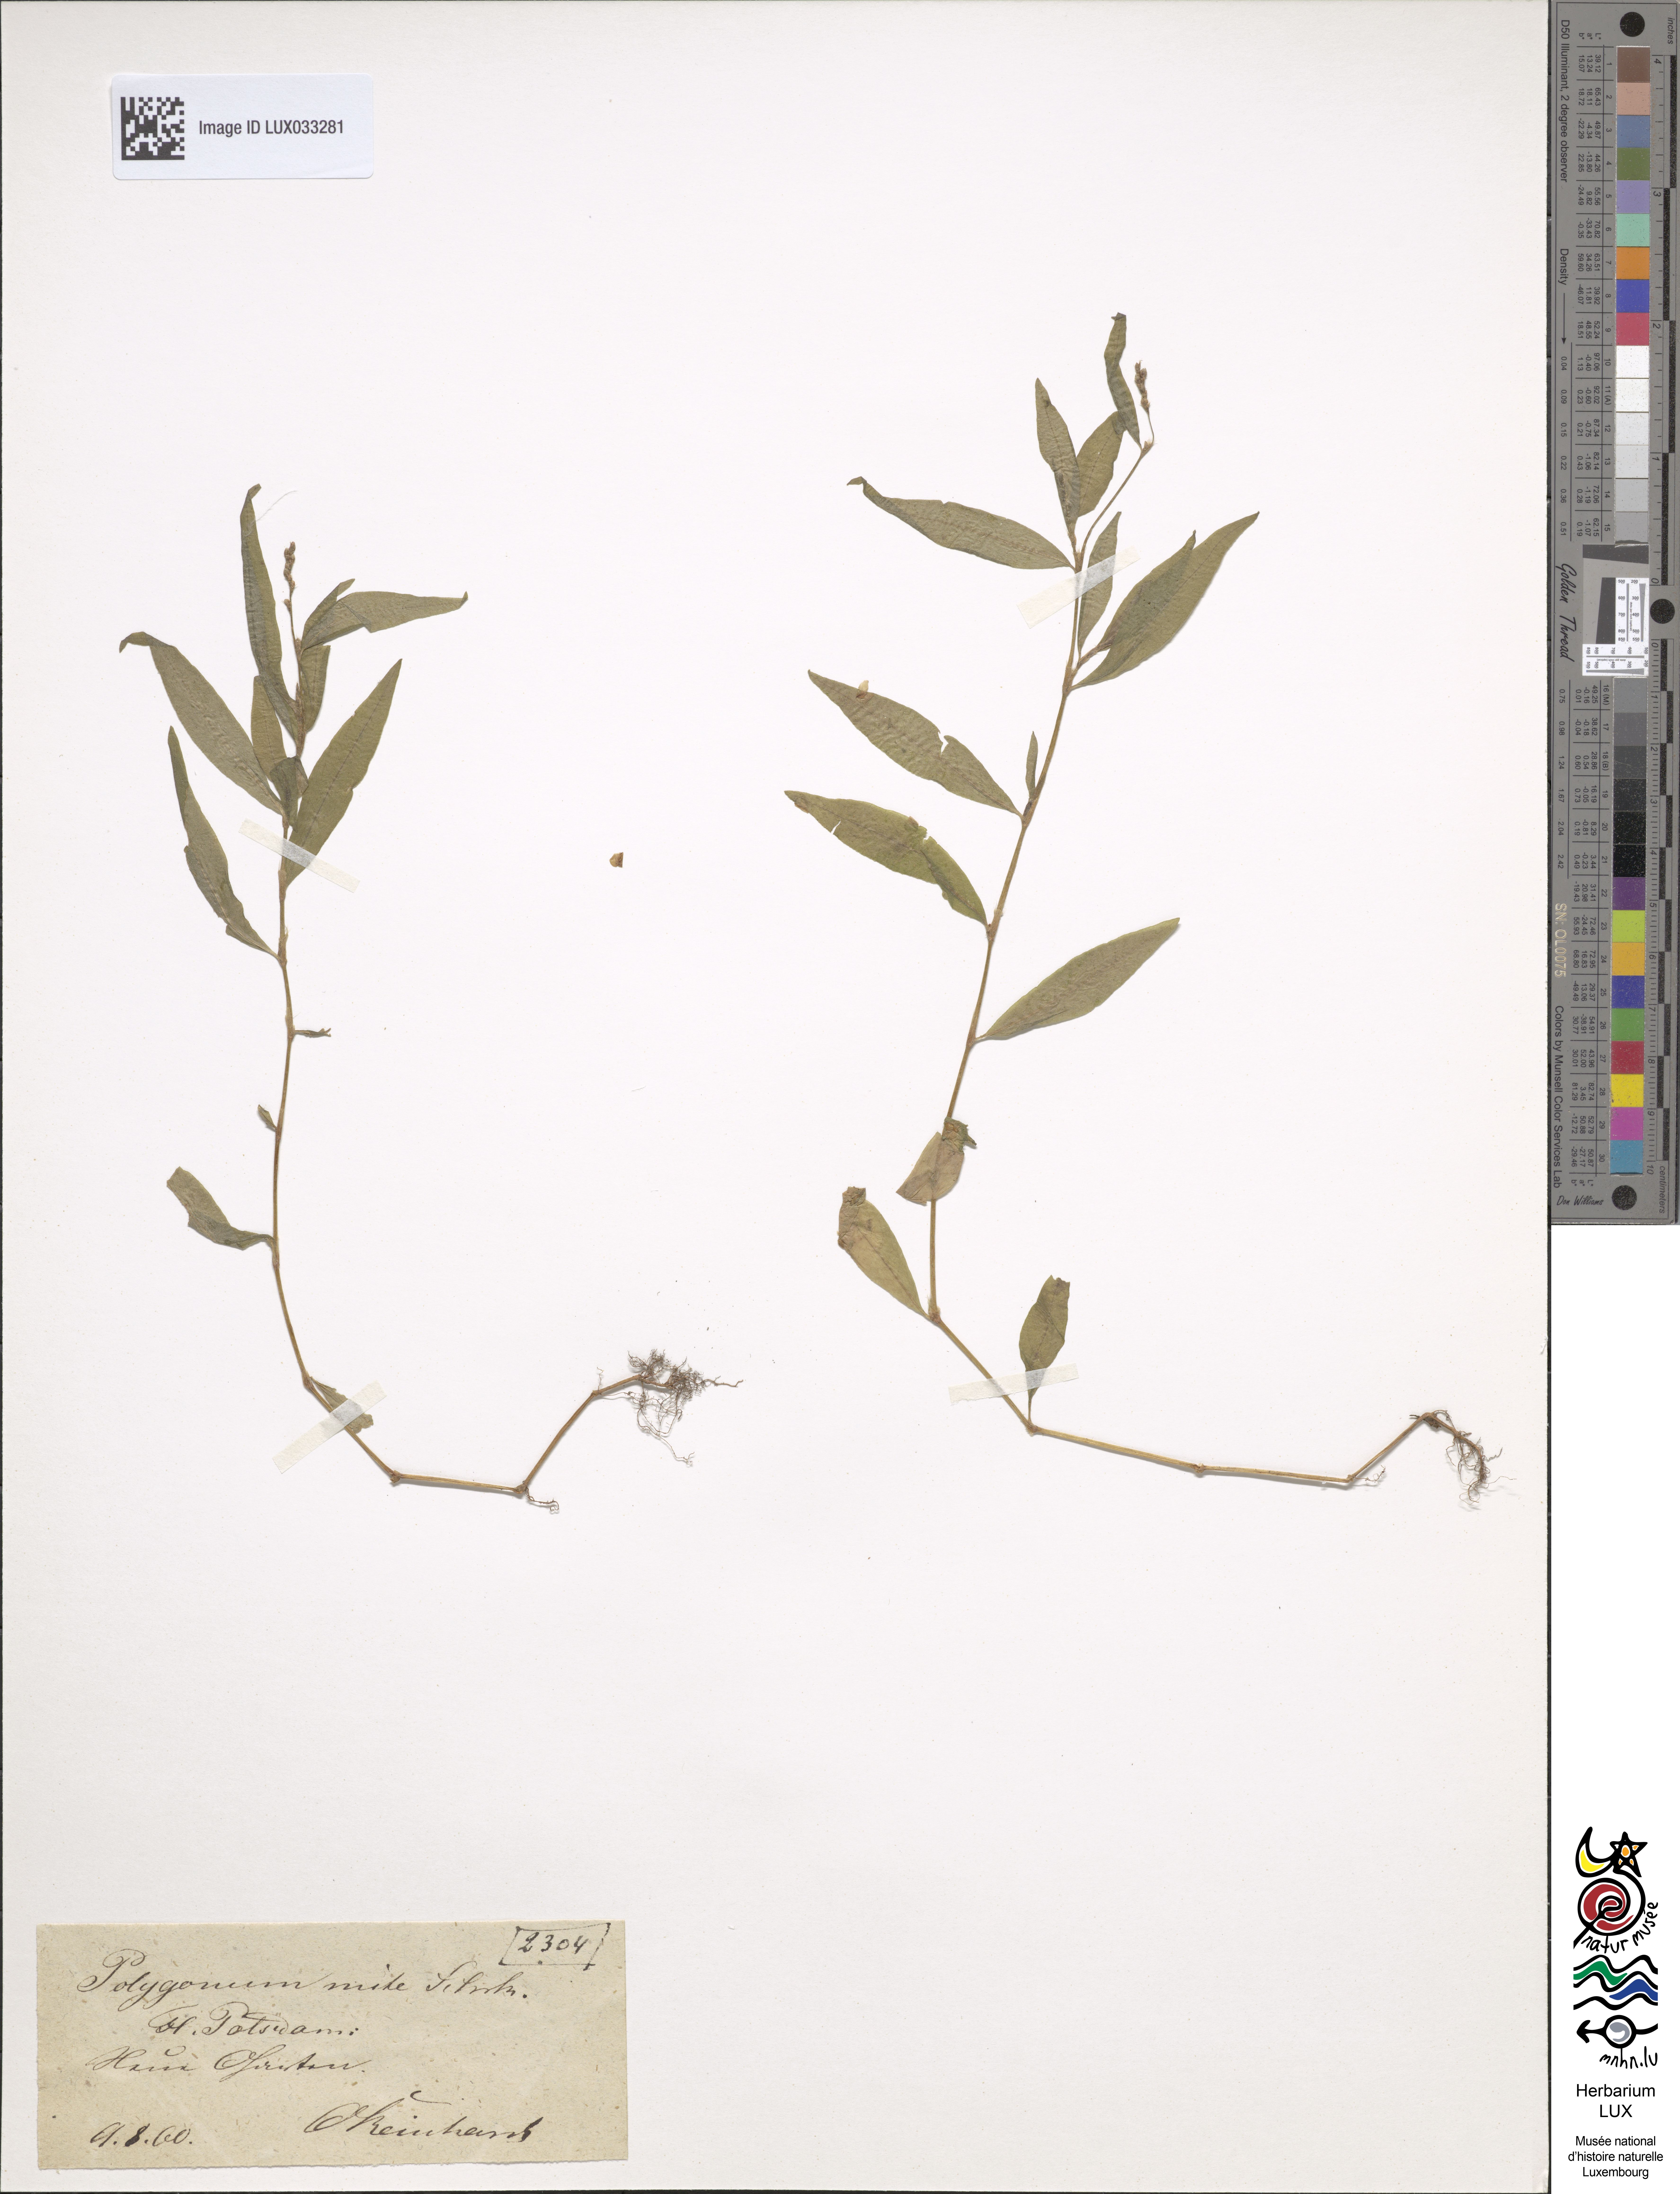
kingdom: Plantae
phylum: Tracheophyta
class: Magnoliopsida
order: Caryophyllales
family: Polygonaceae
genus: Persicaria
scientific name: Persicaria mitis
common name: Tasteless water-pepper
